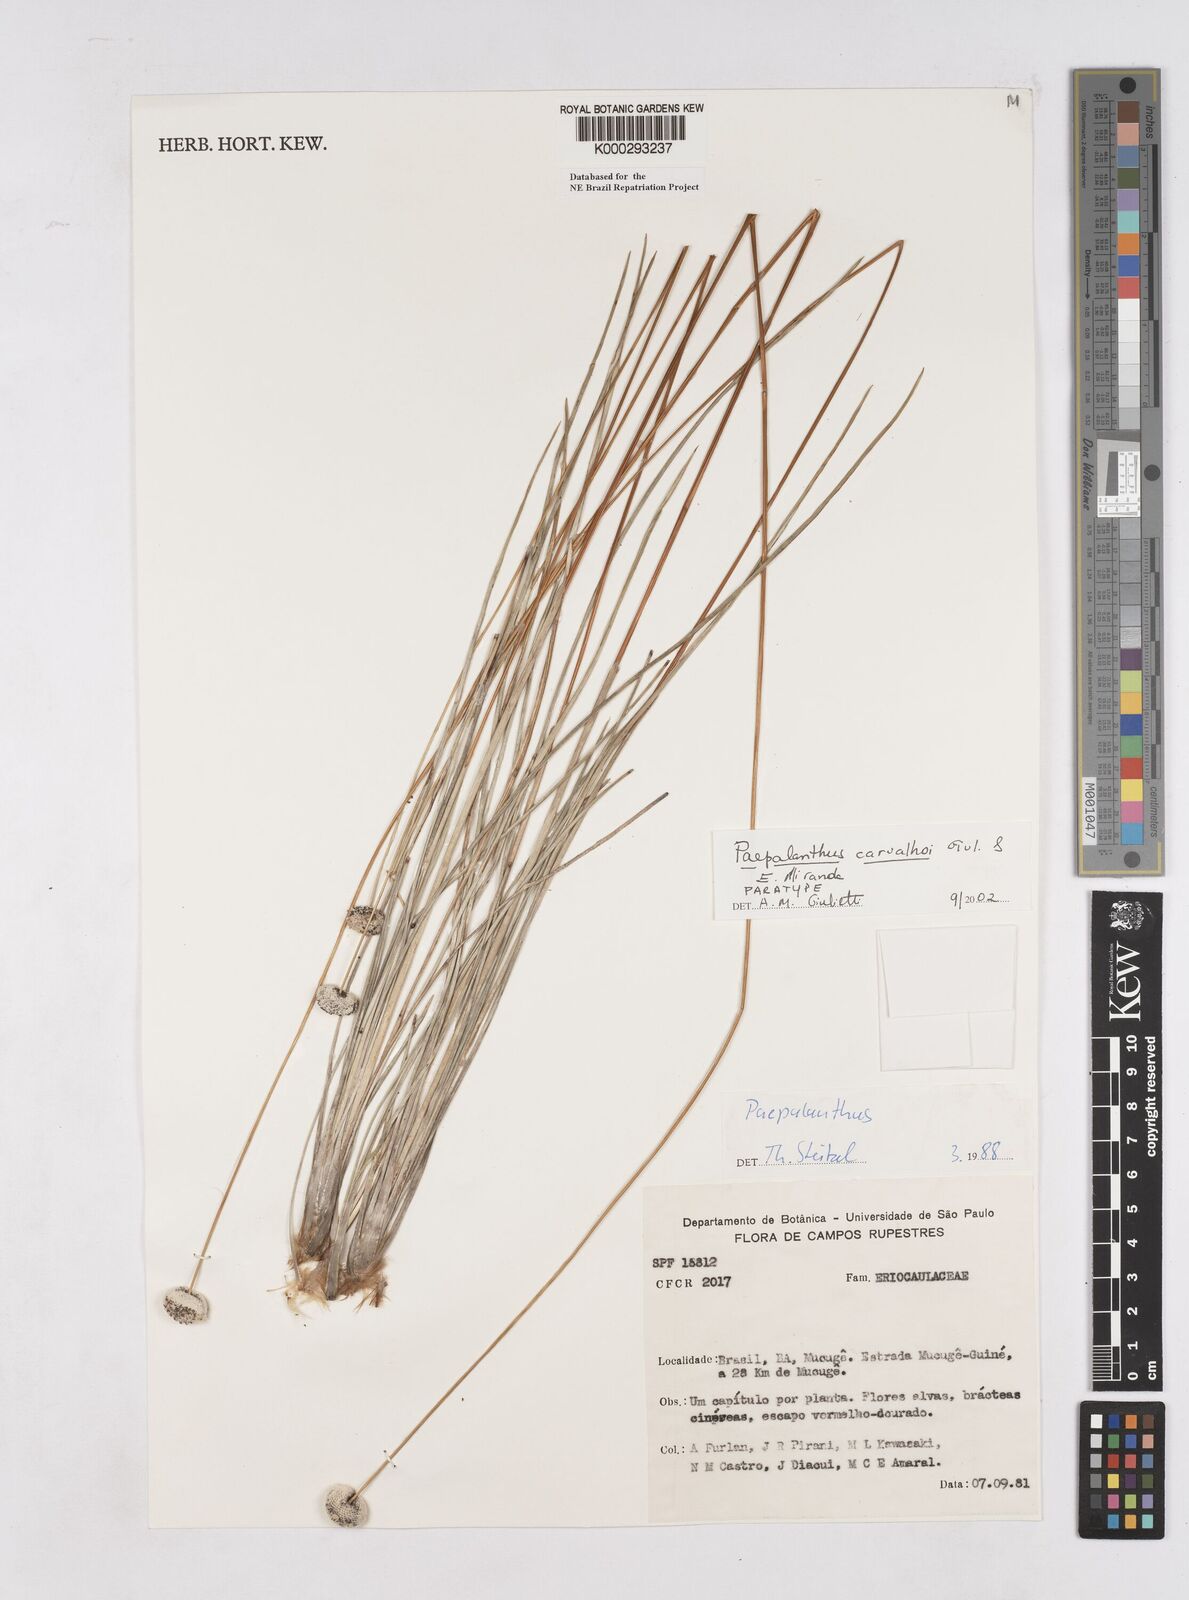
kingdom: Plantae
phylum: Tracheophyta
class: Liliopsida
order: Poales
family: Eriocaulaceae
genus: Paepalanthus
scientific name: Paepalanthus carvalhoi
